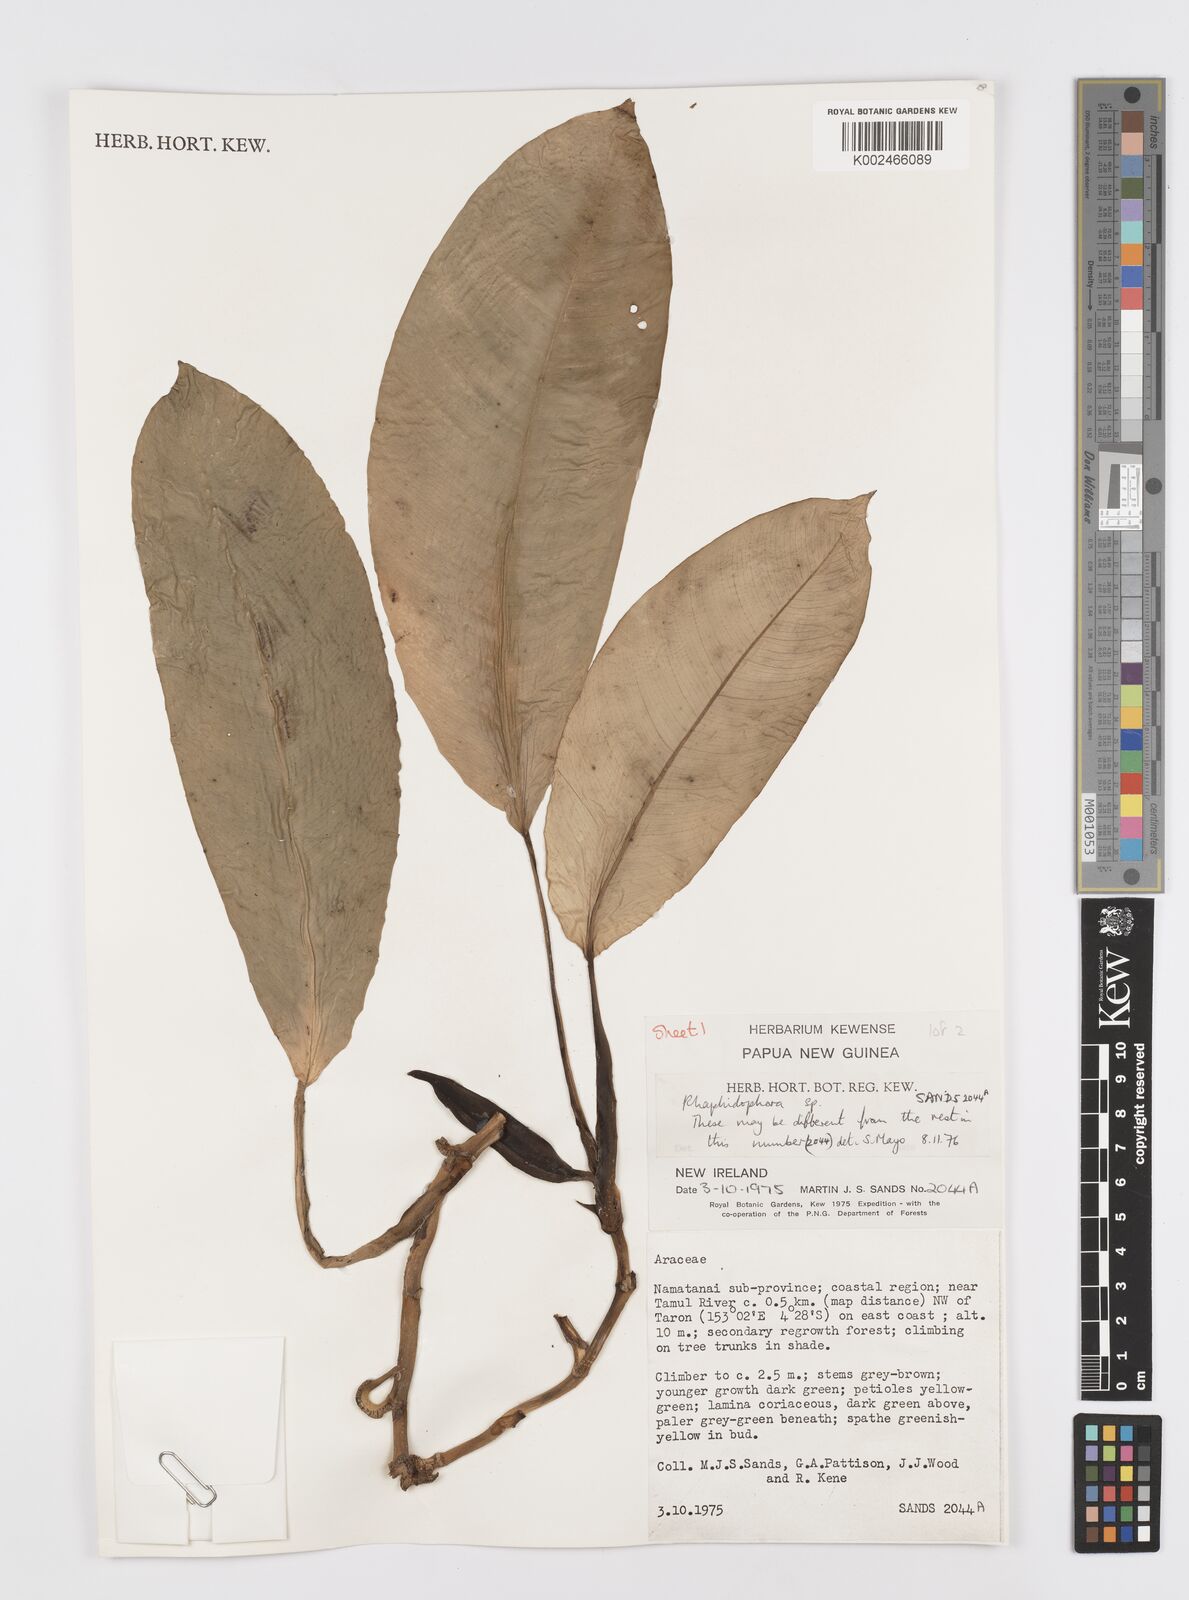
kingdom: Plantae
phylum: Tracheophyta
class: Liliopsida
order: Alismatales
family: Araceae
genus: Rhaphidophora
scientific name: Rhaphidophora schlechteri
